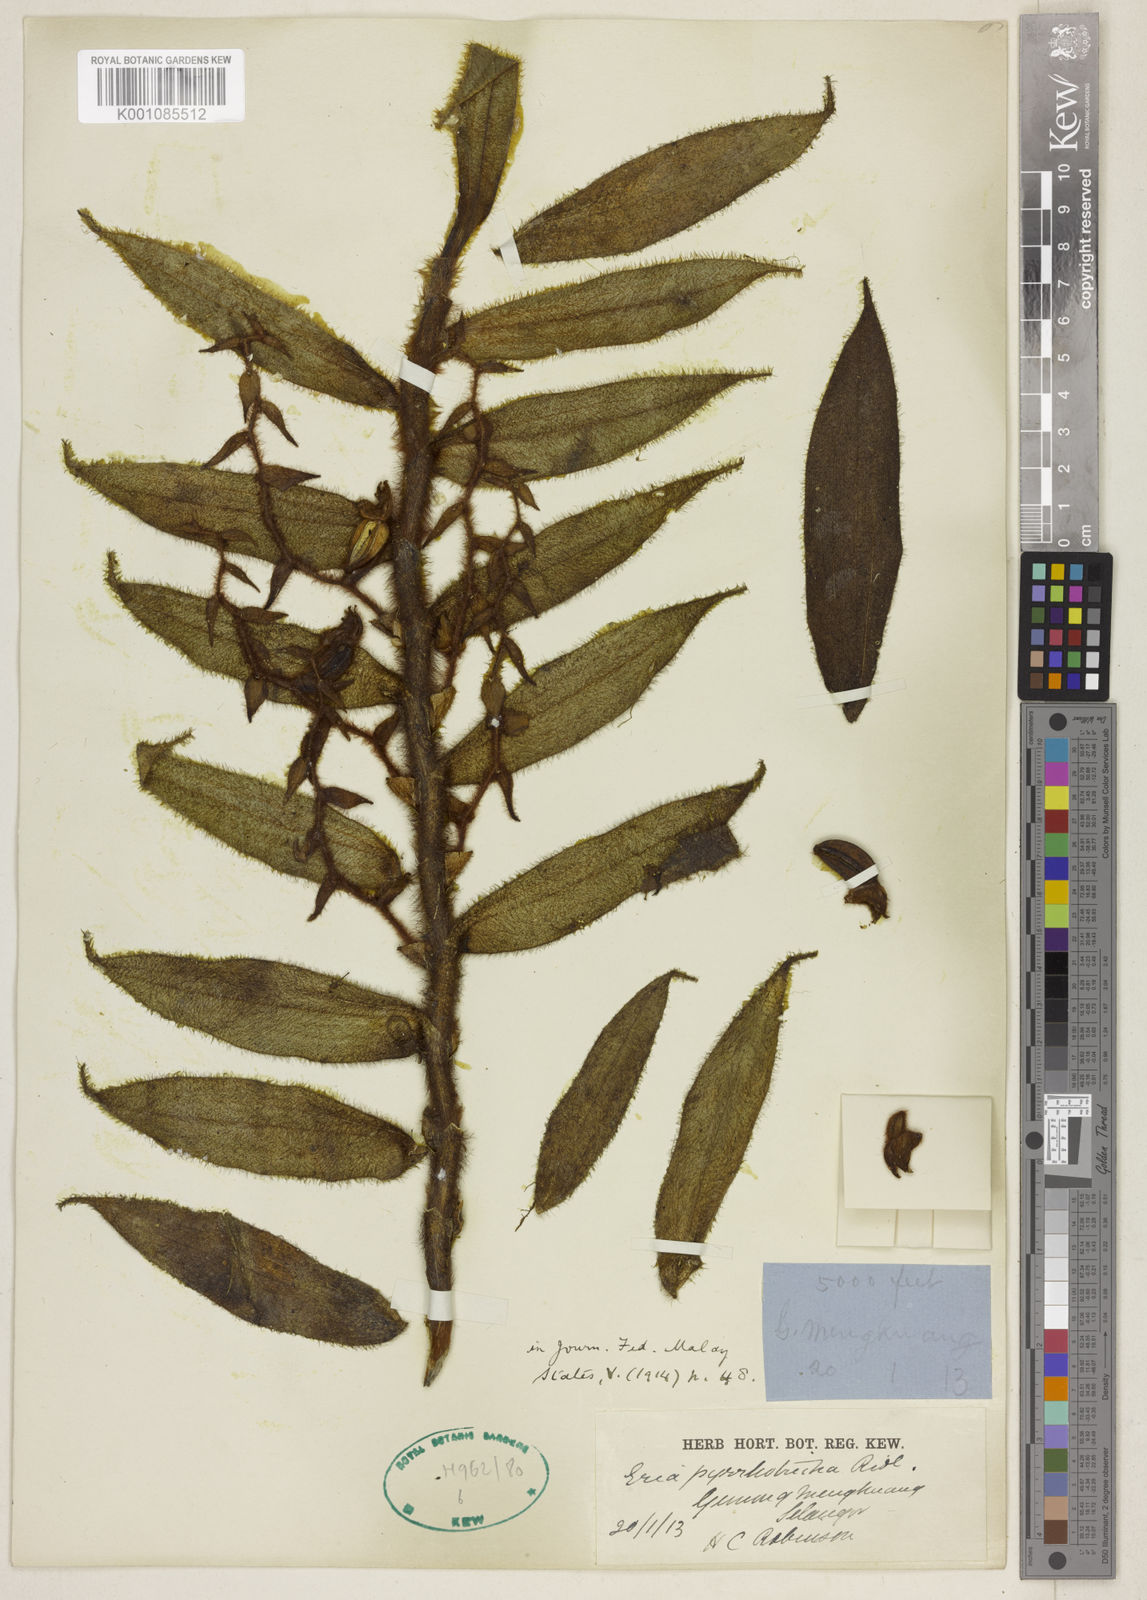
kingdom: Plantae
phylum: Tracheophyta
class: Liliopsida
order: Asparagales
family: Orchidaceae
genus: Trichotosia
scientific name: Trichotosia ferox
